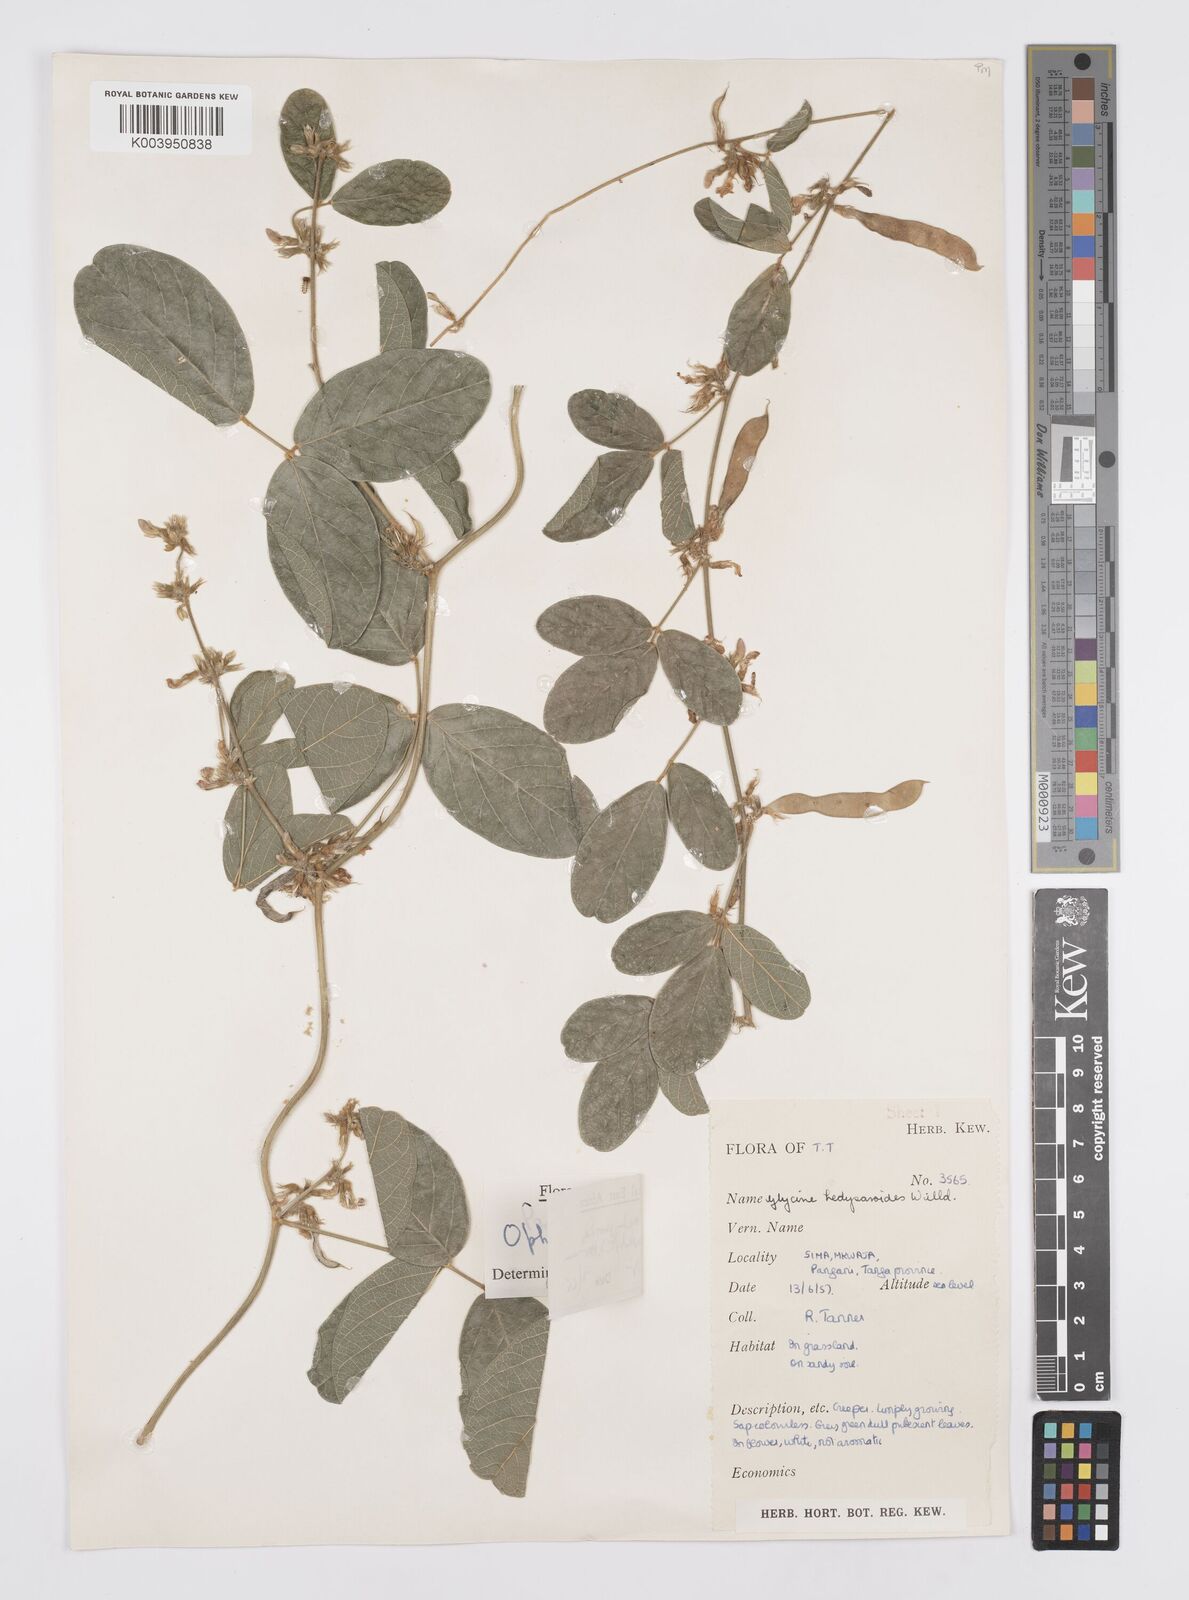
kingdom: Plantae
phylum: Tracheophyta
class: Magnoliopsida
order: Fabales
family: Fabaceae
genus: Ophrestia
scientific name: Ophrestia hedysaroides
